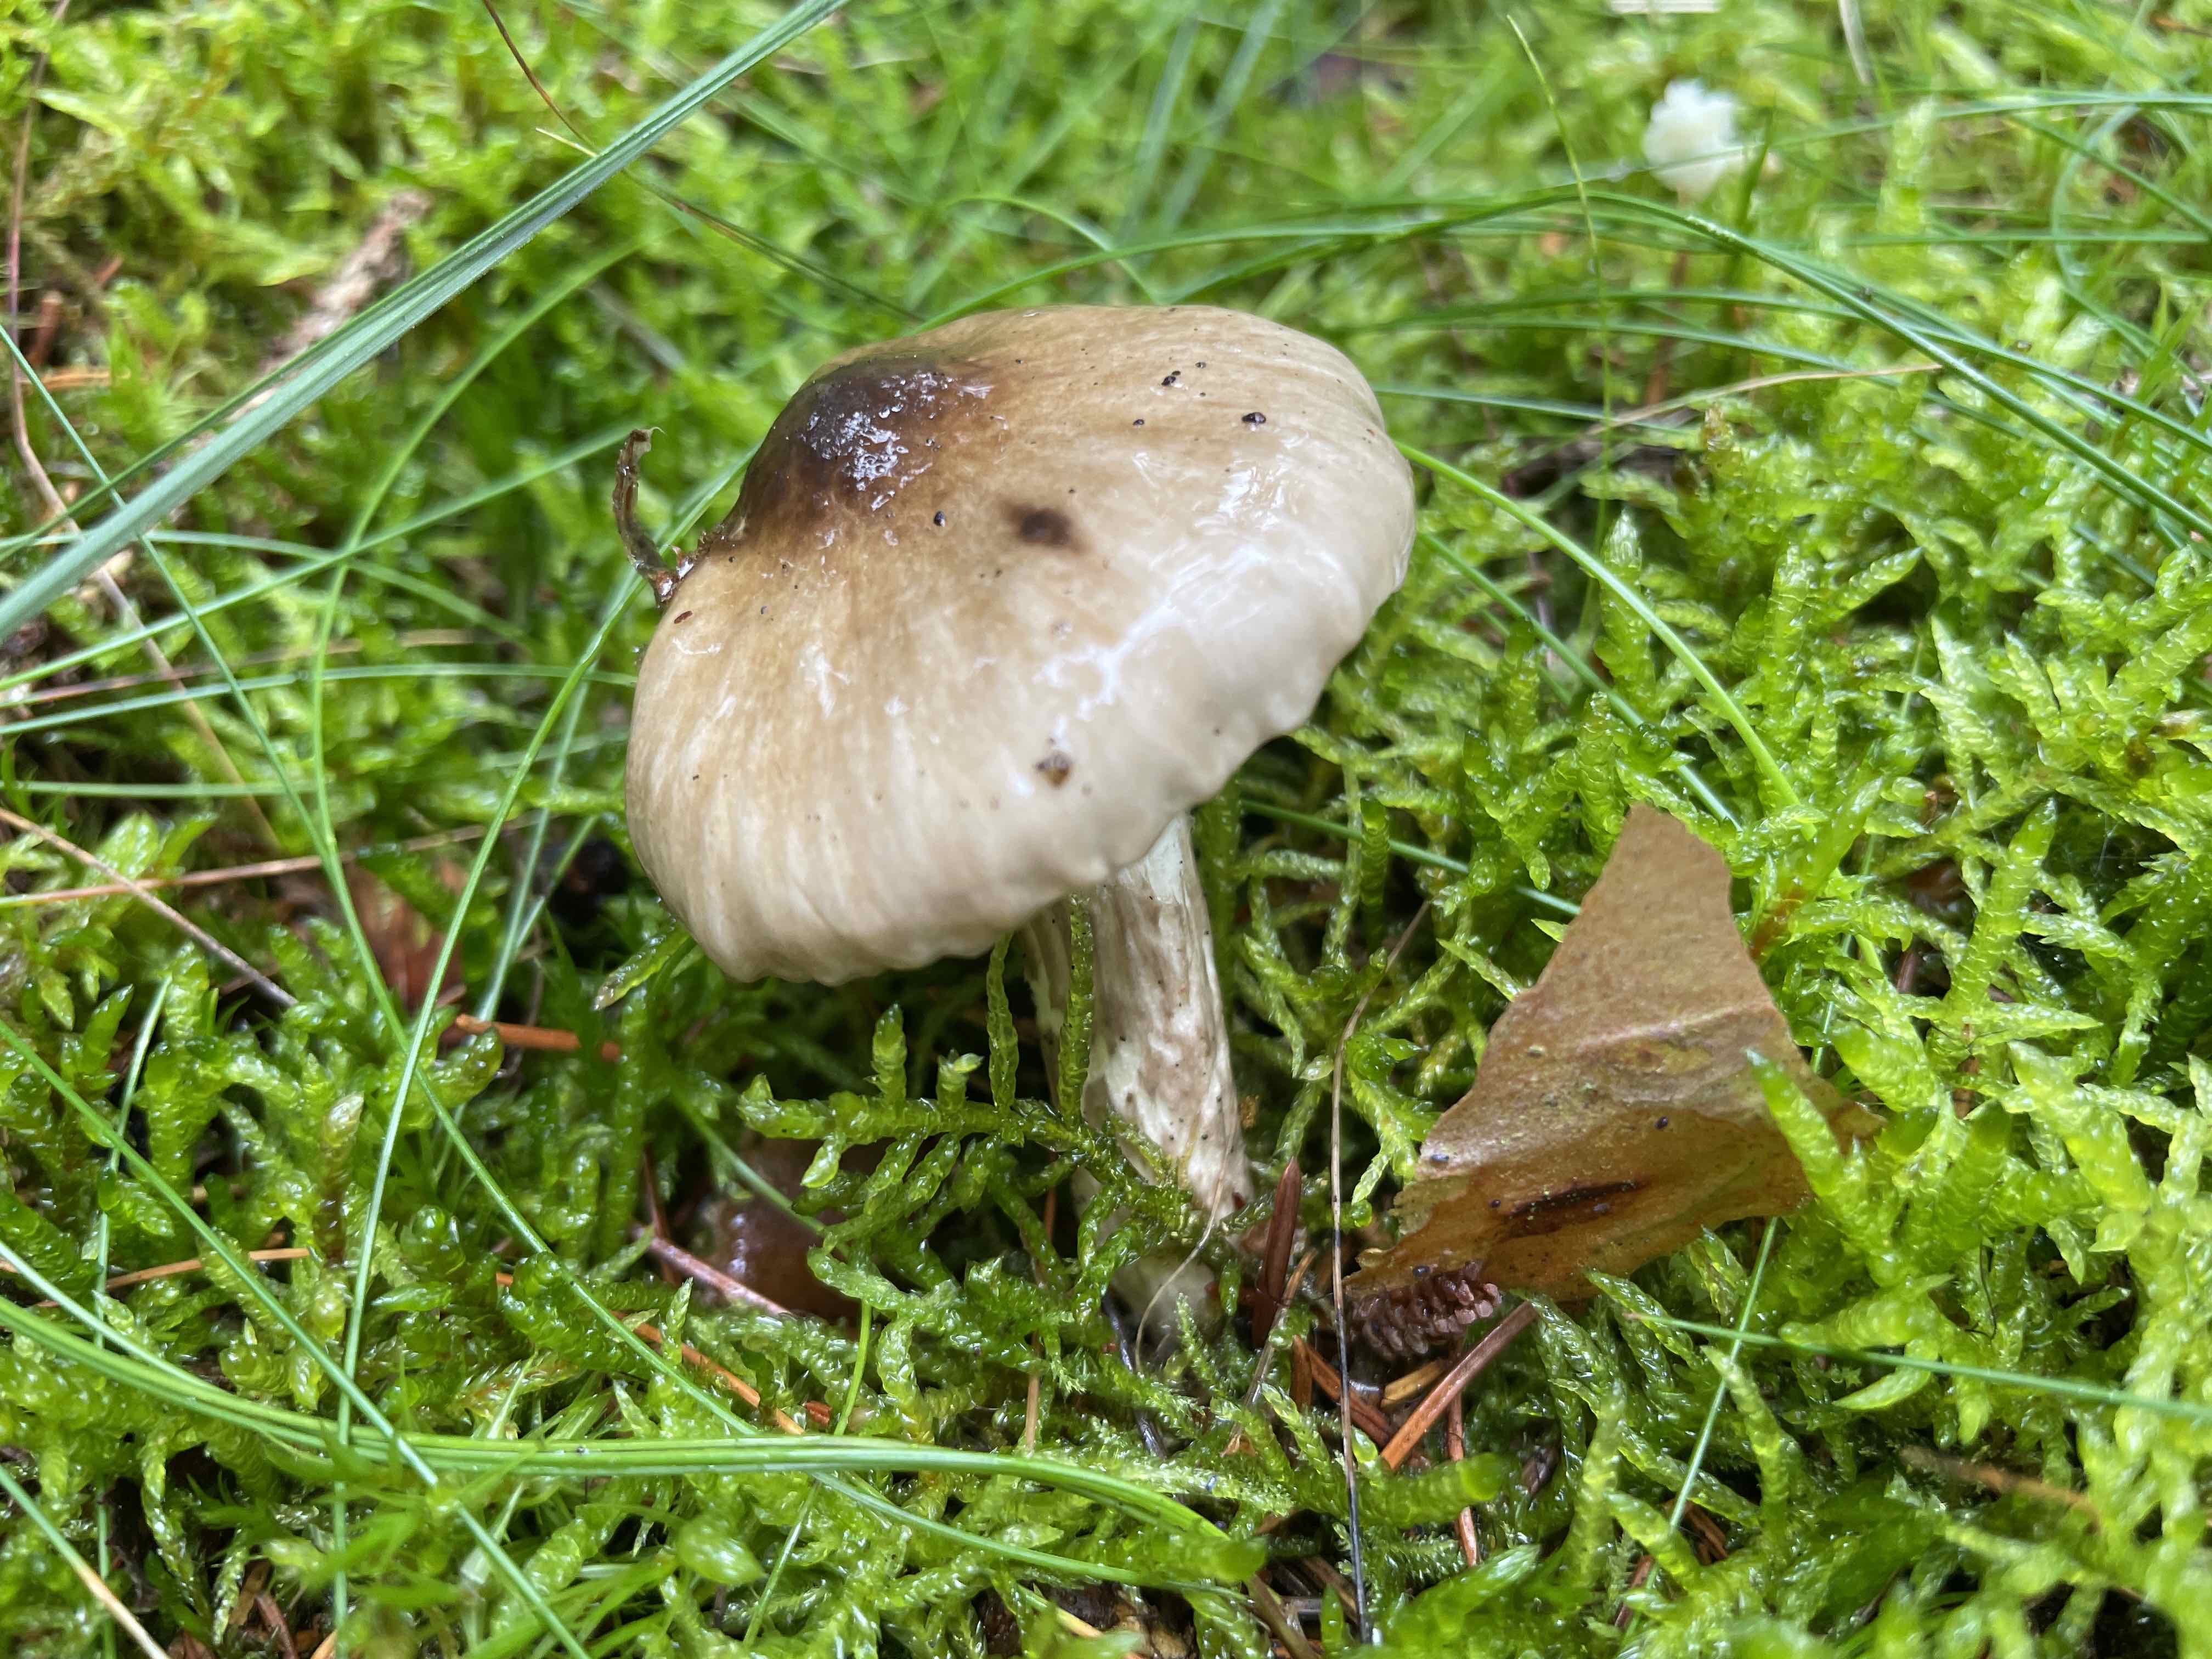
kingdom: Fungi
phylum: Basidiomycota
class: Agaricomycetes
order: Agaricales
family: Hygrophoraceae
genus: Hygrophorus
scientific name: Hygrophorus olivaceoalbus
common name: hvidbrun sneglehat
